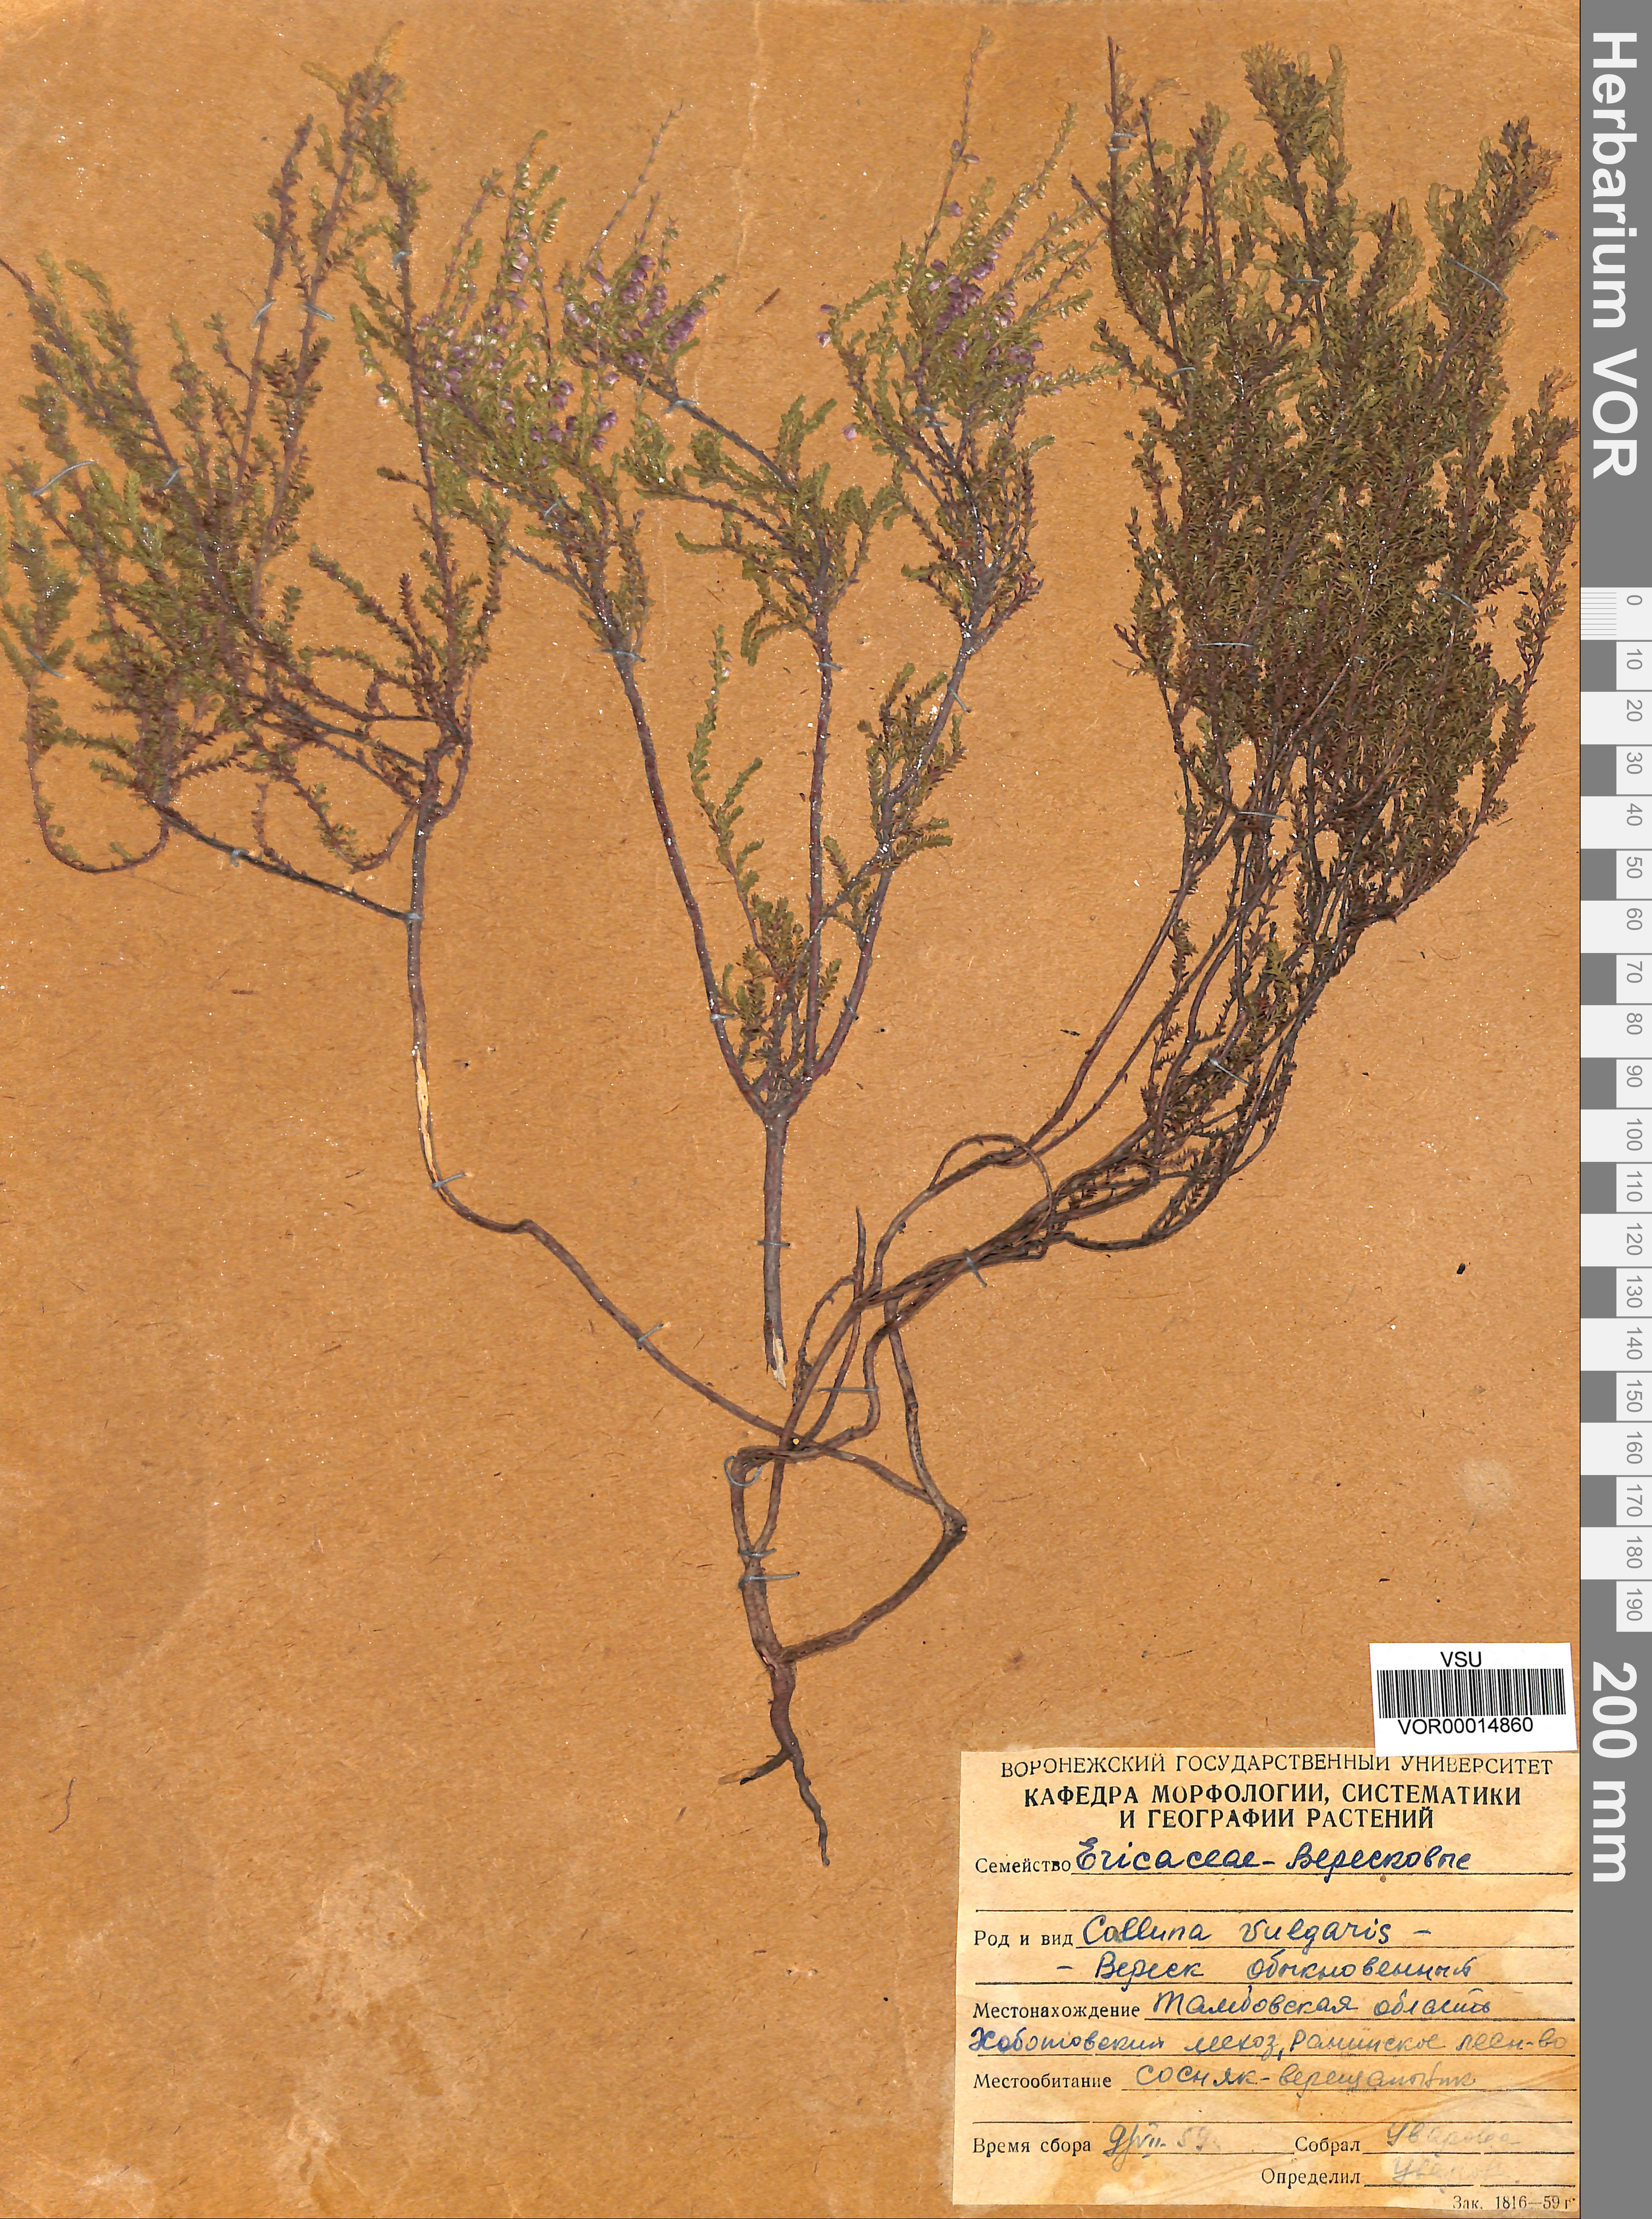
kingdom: Plantae
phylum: Tracheophyta
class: Magnoliopsida
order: Ericales
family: Ericaceae
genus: Calluna
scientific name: Calluna vulgaris
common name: Heather
